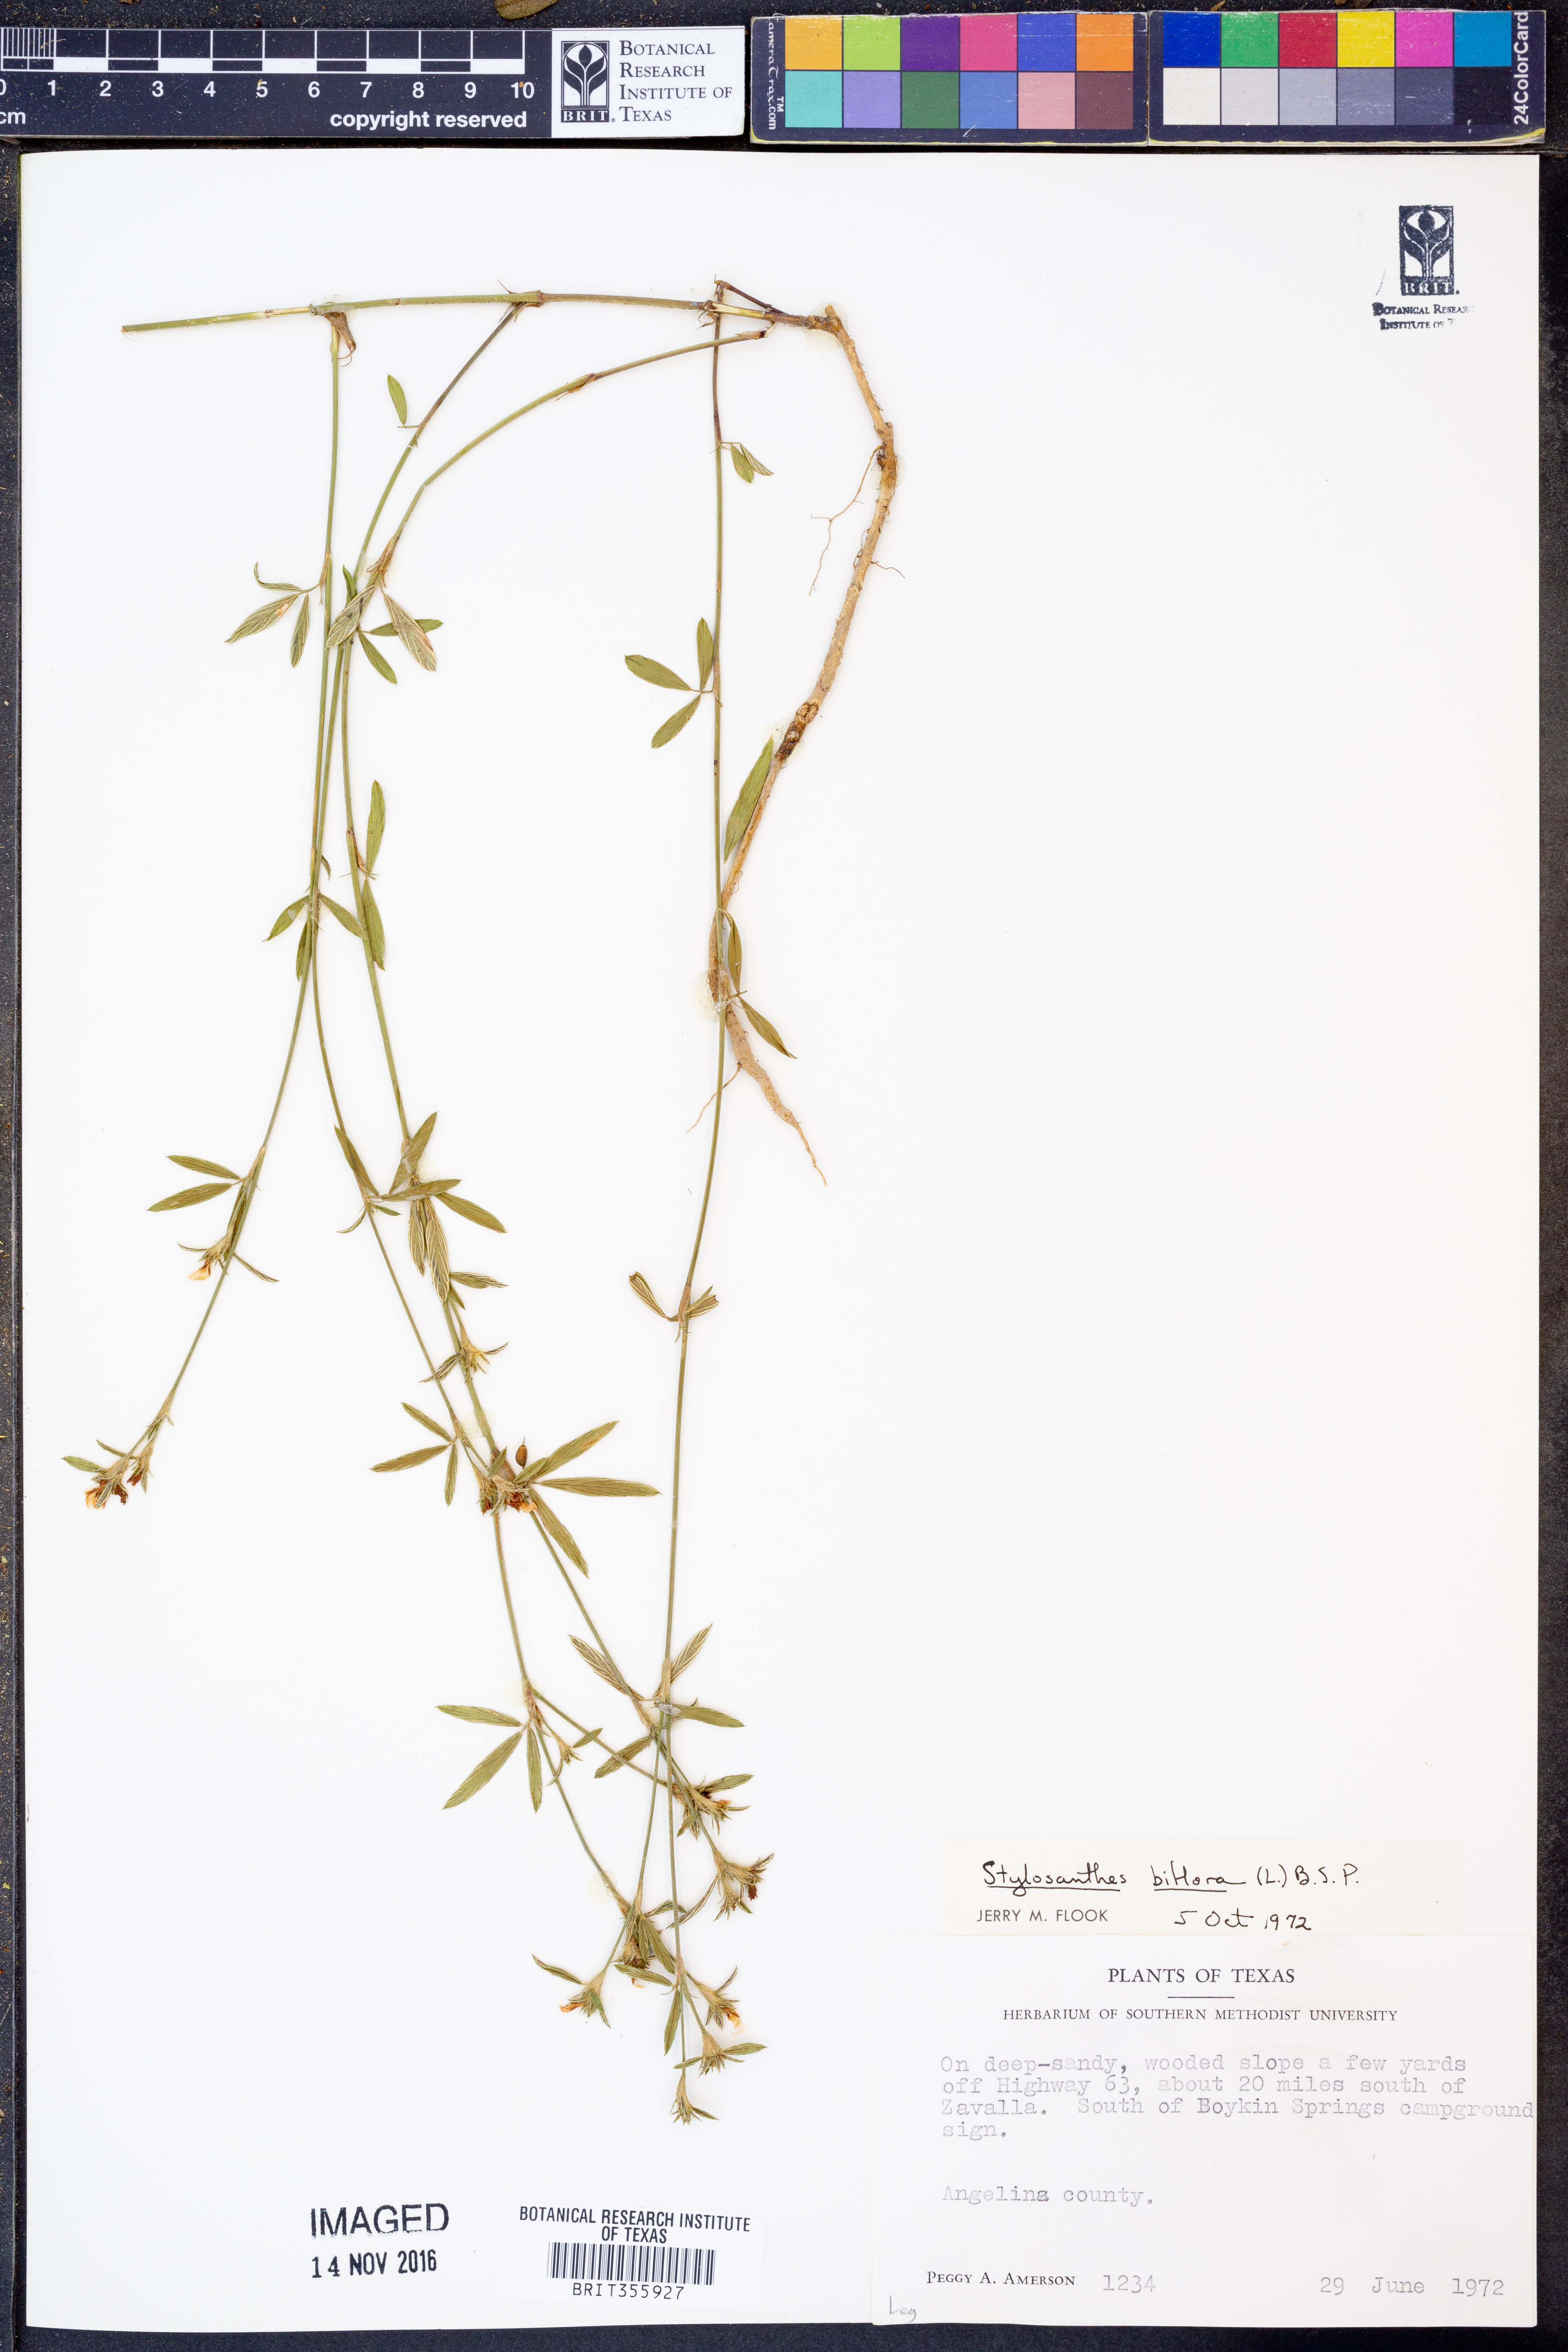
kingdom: Plantae
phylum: Tracheophyta
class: Magnoliopsida
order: Fabales
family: Fabaceae
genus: Stylosanthes
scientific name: Stylosanthes biflora
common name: Two-flower pencil-flower
